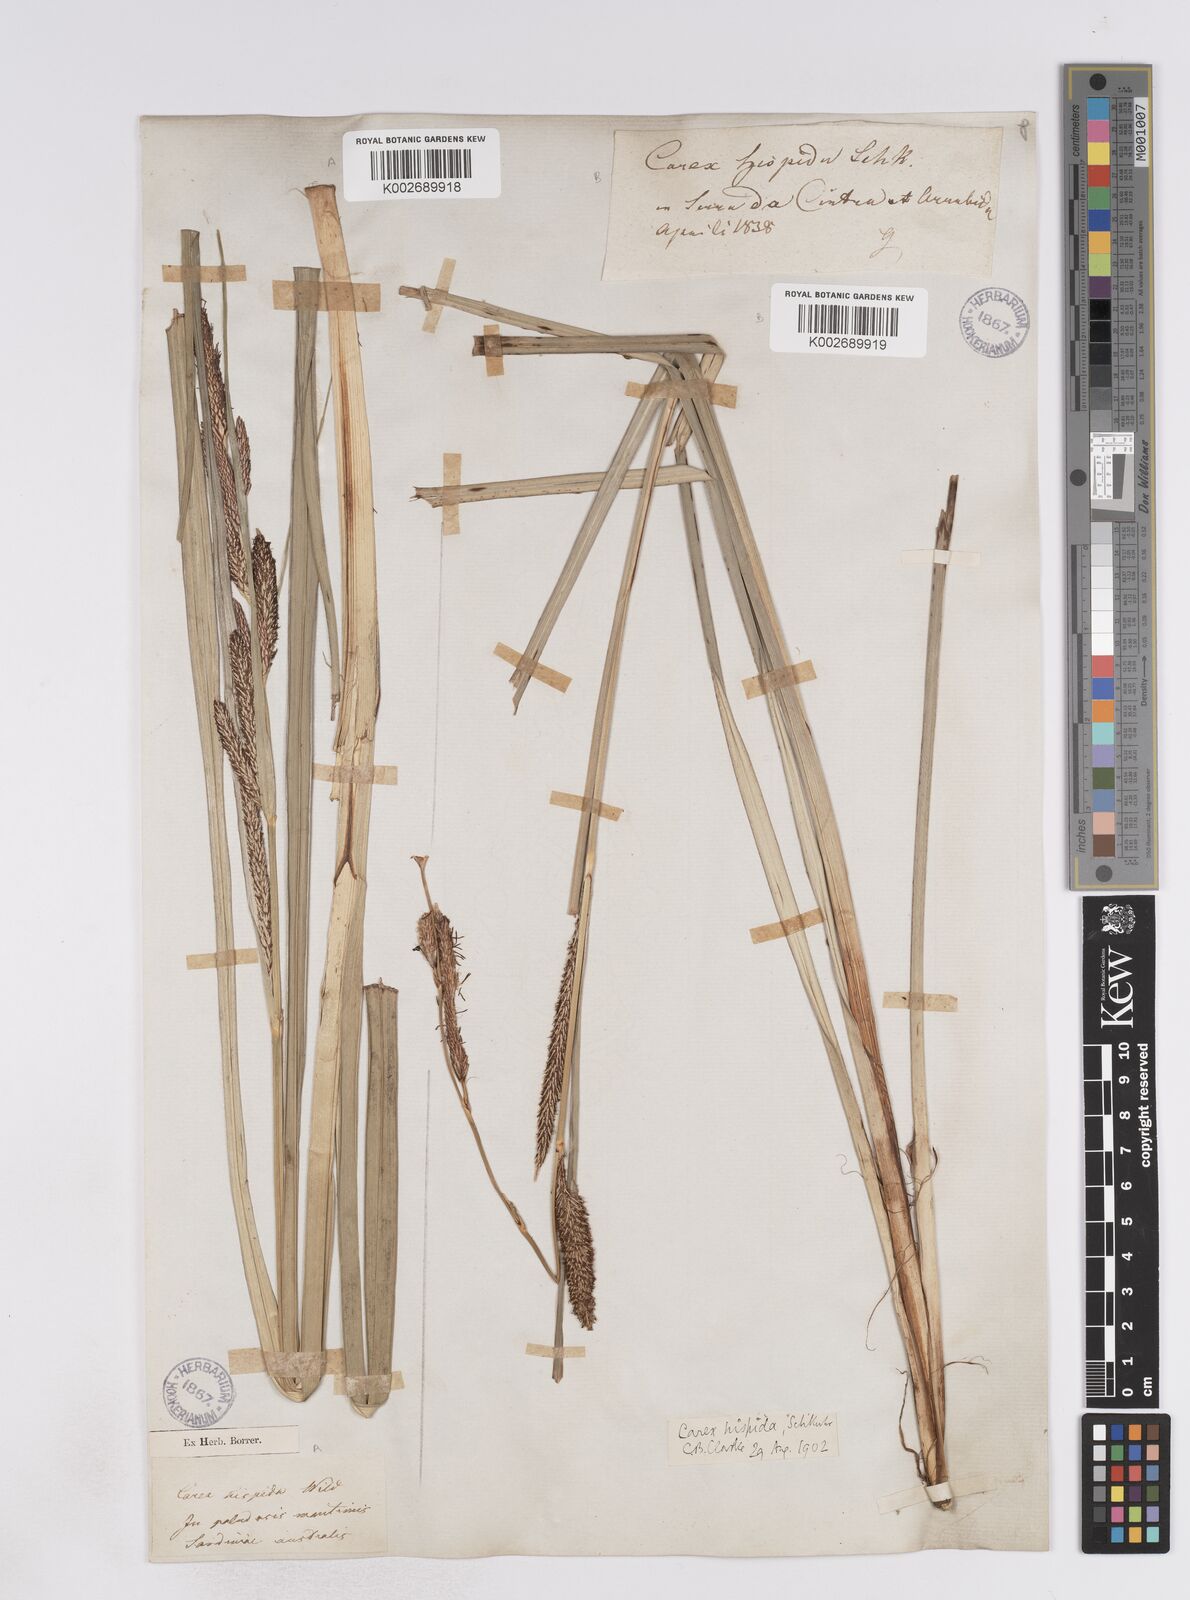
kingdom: Plantae
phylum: Tracheophyta
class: Liliopsida
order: Poales
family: Cyperaceae
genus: Carex
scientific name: Carex hispida
